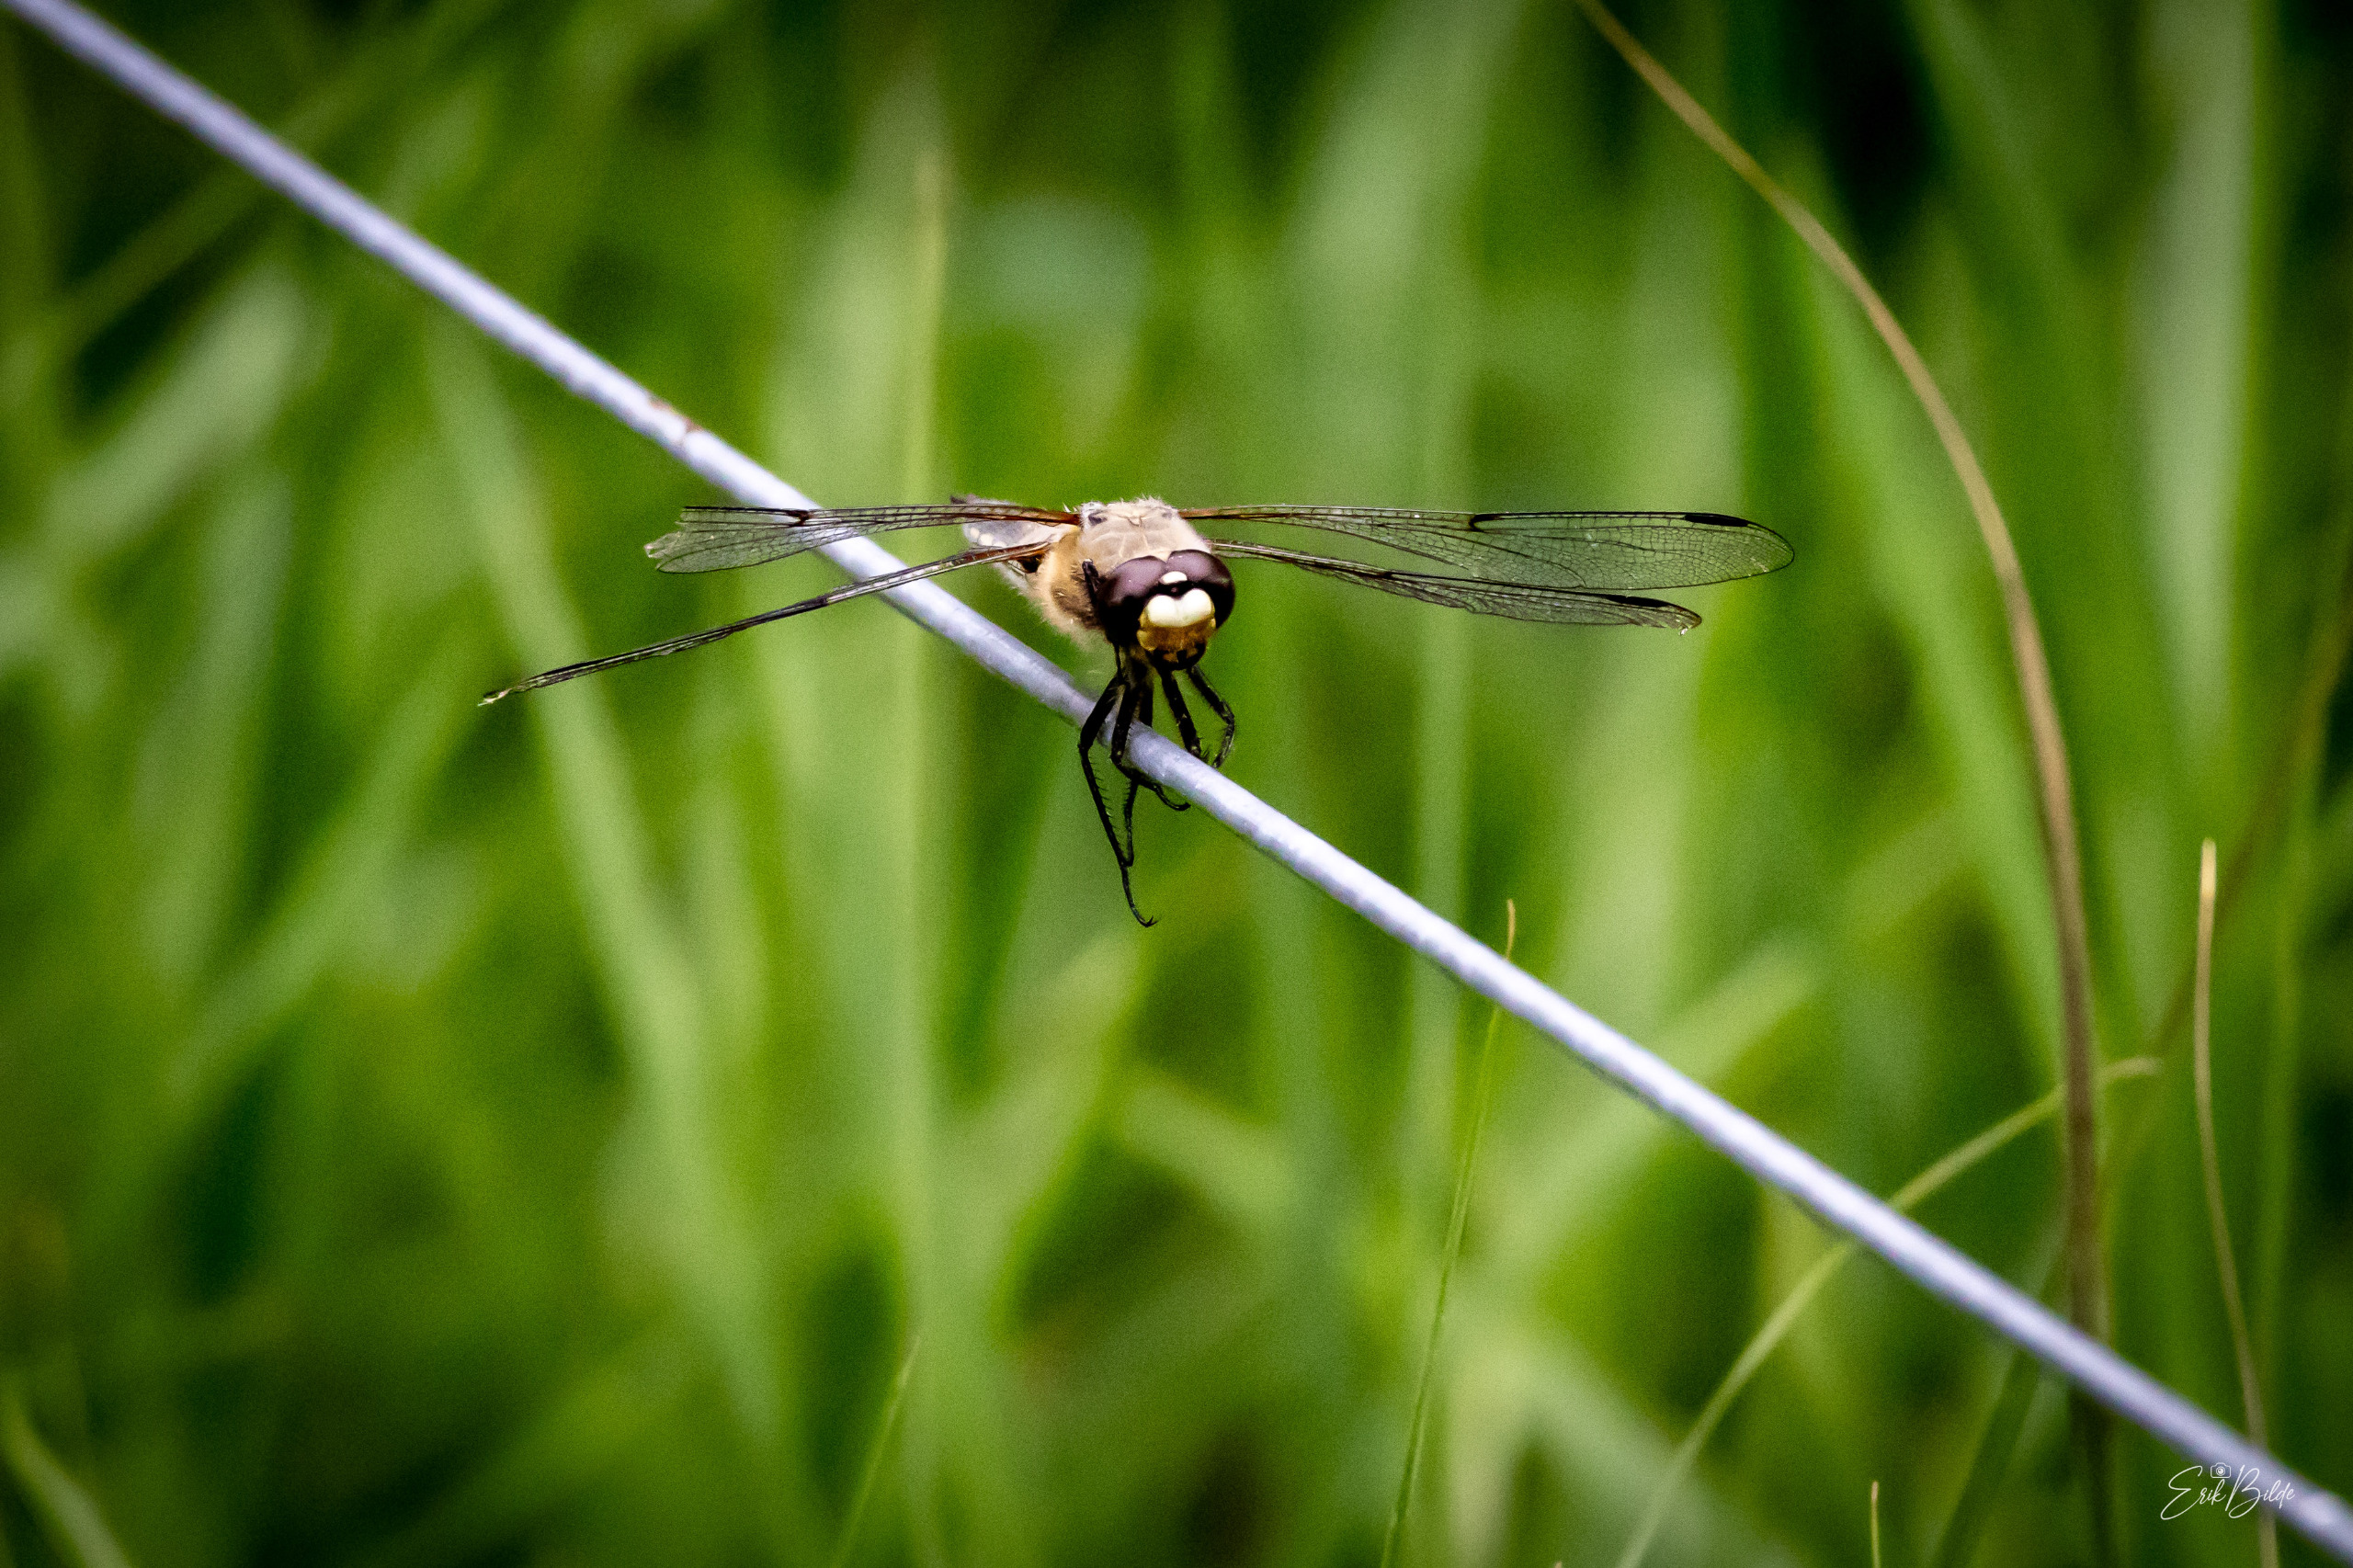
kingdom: Animalia
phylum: Arthropoda
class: Insecta
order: Odonata
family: Libellulidae
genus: Libellula
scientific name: Libellula quadrimaculata
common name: Fireplettet libel
